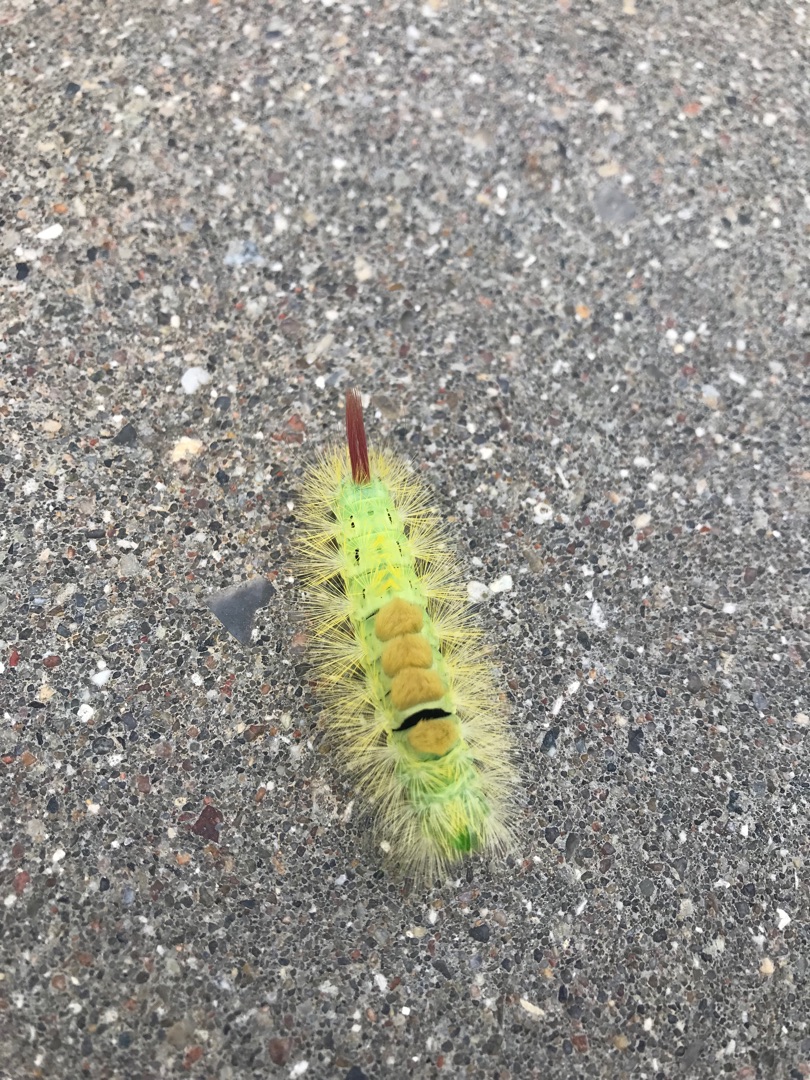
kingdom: Animalia
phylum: Arthropoda
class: Insecta
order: Lepidoptera
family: Erebidae
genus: Calliteara
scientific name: Calliteara pudibunda
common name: Bøgenonne
